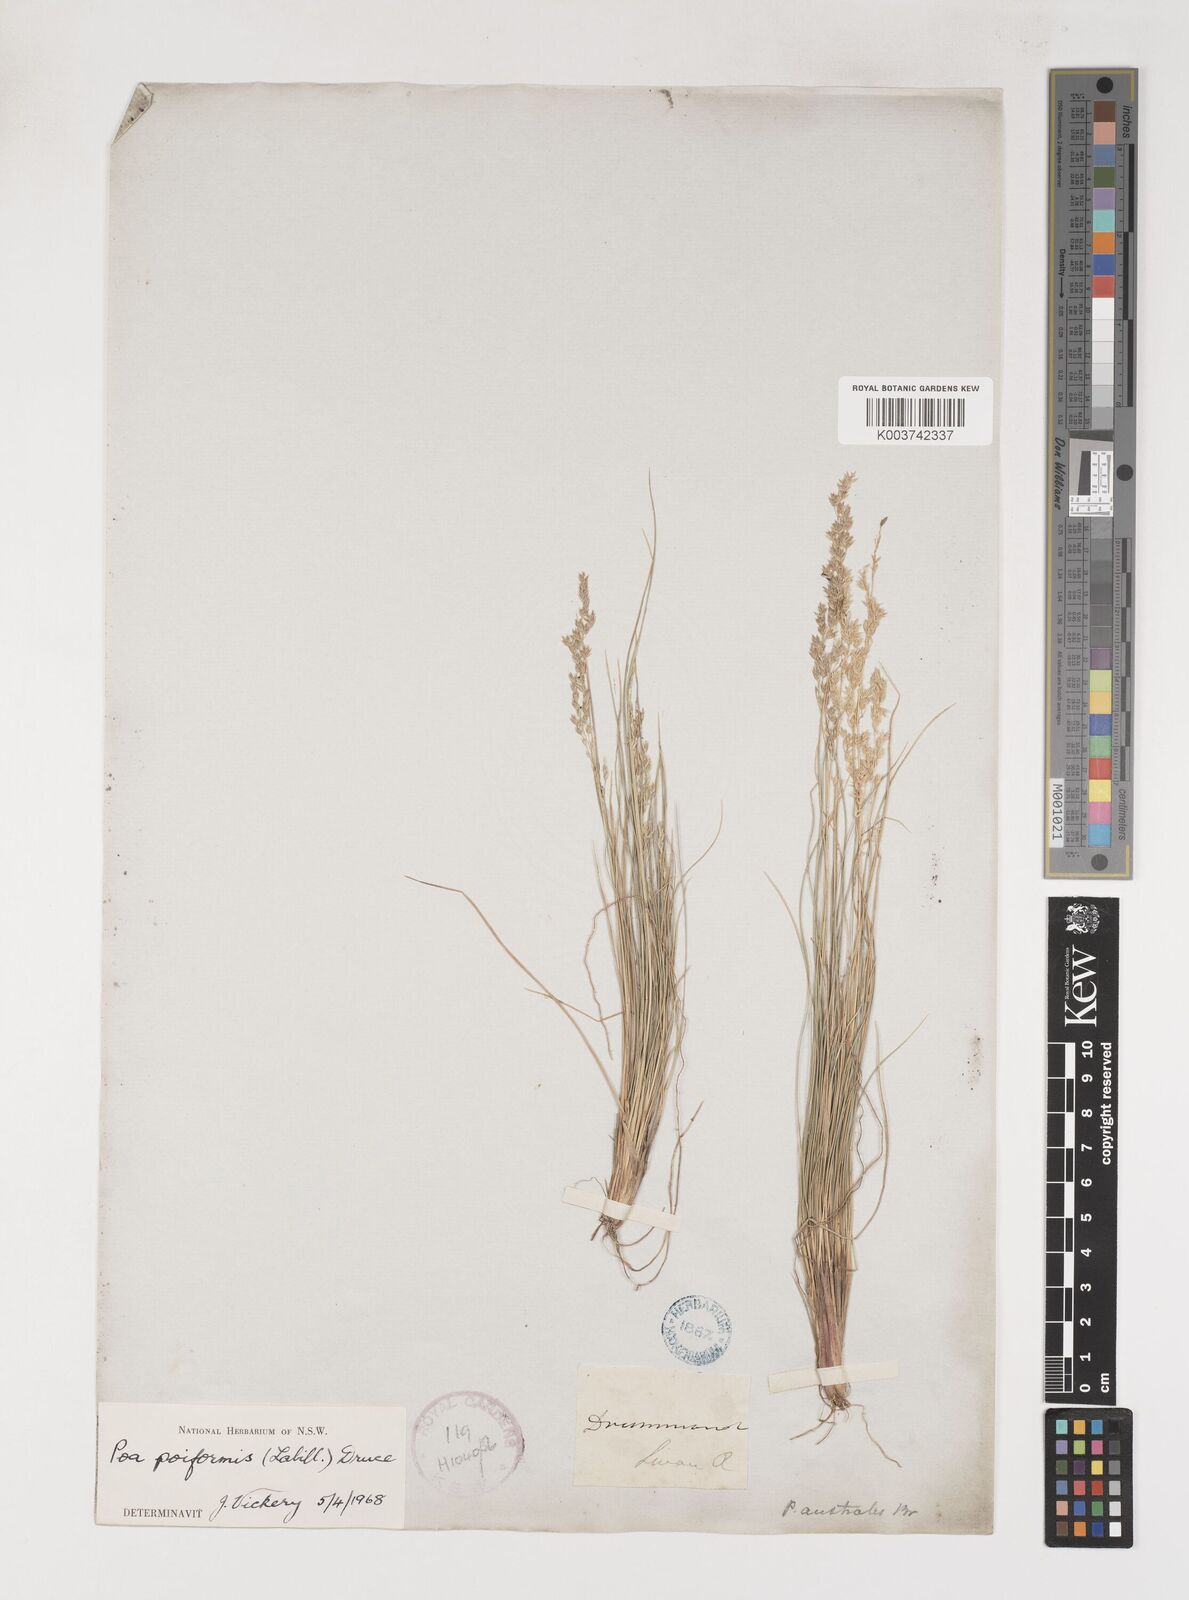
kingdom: Plantae
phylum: Tracheophyta
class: Liliopsida
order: Poales
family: Poaceae
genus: Poa
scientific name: Poa poiformis
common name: Tussock poa
